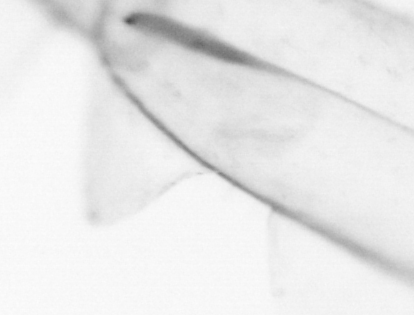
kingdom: Animalia
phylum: Chaetognatha
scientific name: Chaetognatha
